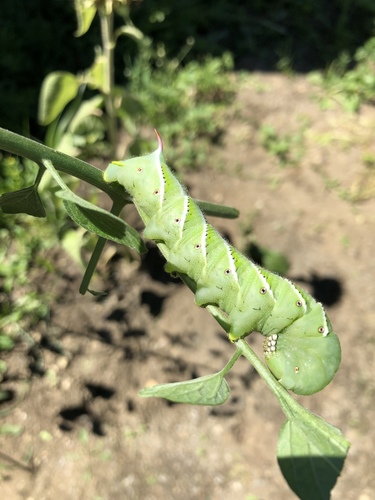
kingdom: Animalia
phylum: Arthropoda
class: Insecta
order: Lepidoptera
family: Sphingidae
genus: Manduca
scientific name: Manduca sexta
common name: Carolina sphinx
